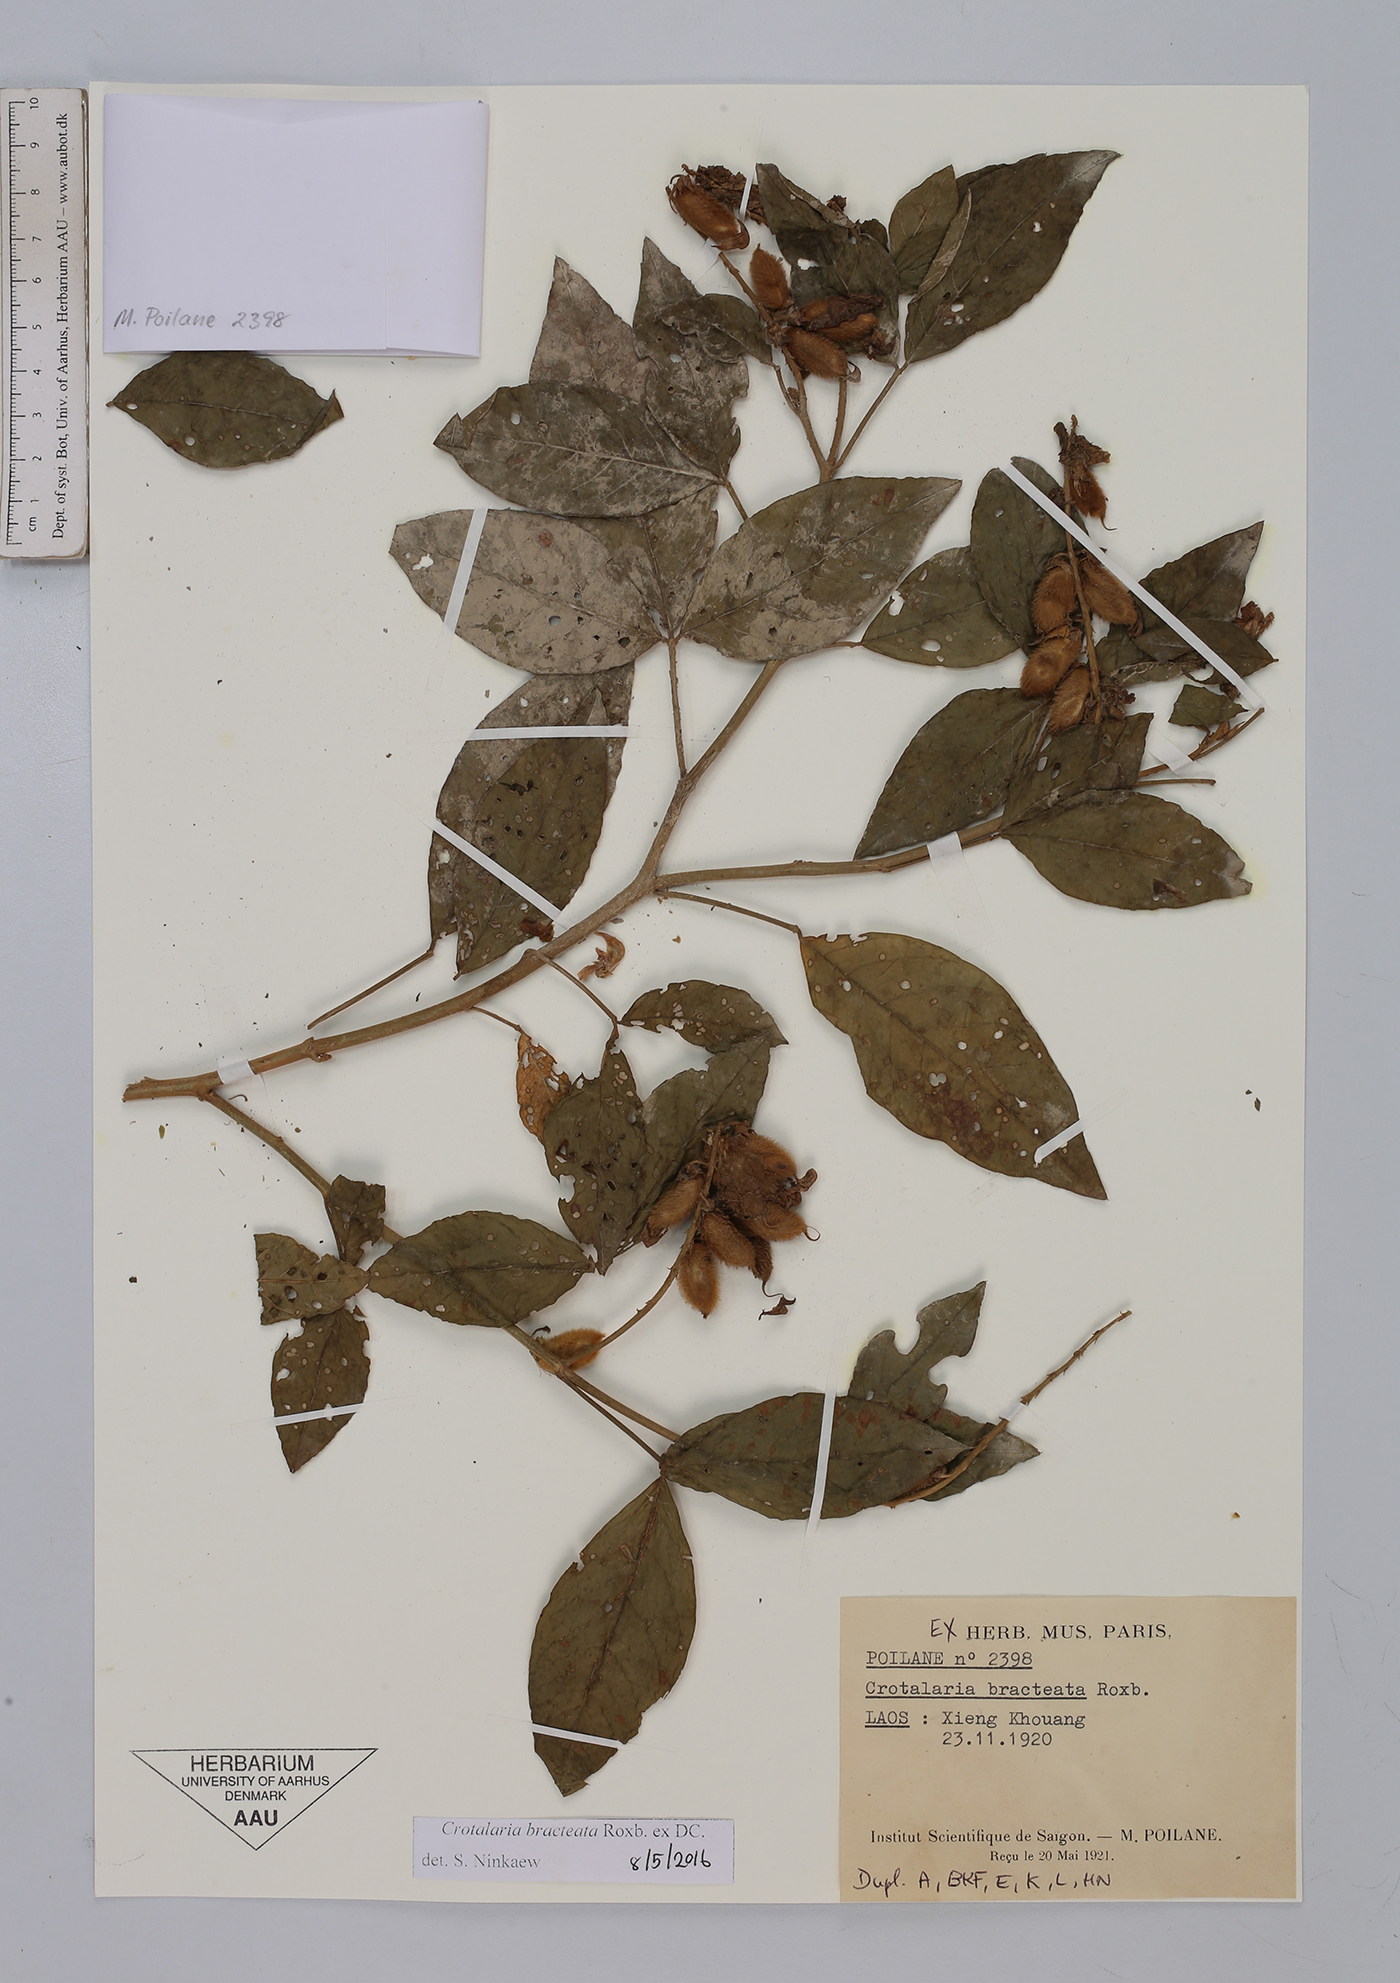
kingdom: Plantae
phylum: Tracheophyta
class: Magnoliopsida
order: Fabales
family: Fabaceae
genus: Crotalaria
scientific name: Crotalaria bracteata
